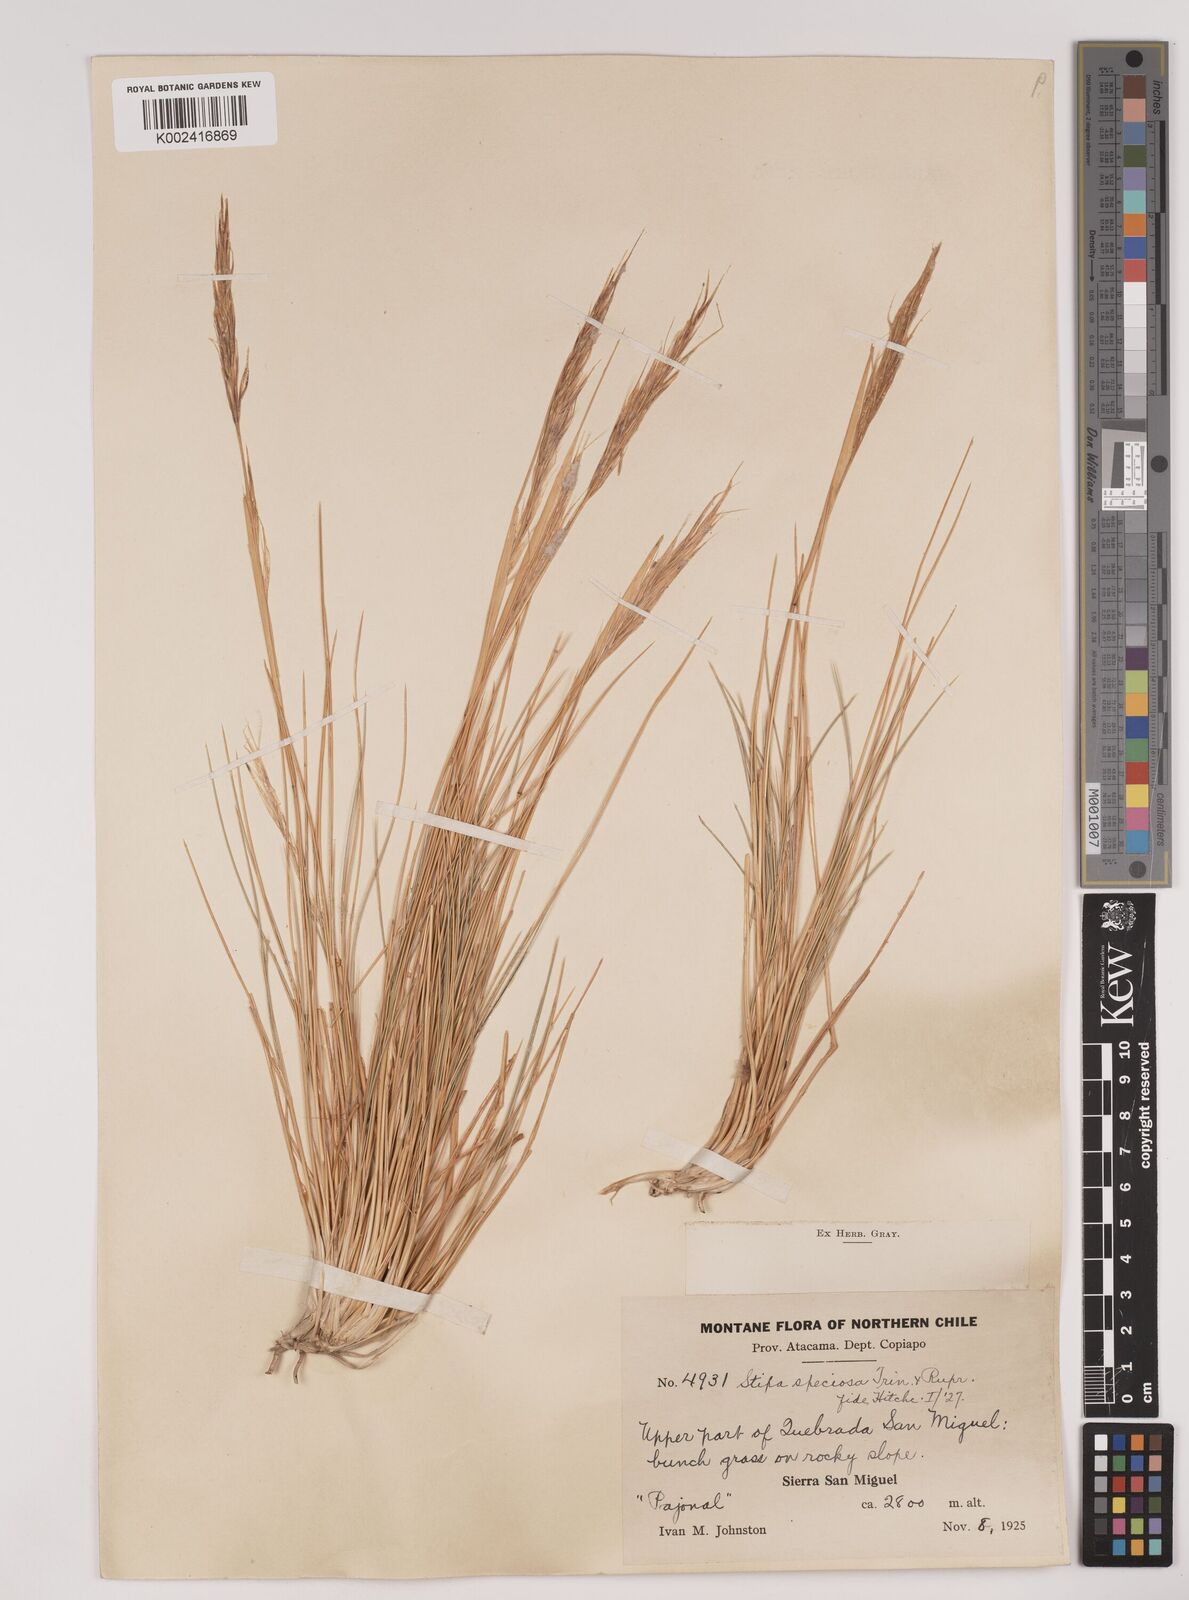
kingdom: Plantae
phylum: Tracheophyta
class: Liliopsida
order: Poales
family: Poaceae
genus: Pappostipa
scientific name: Pappostipa speciosa
